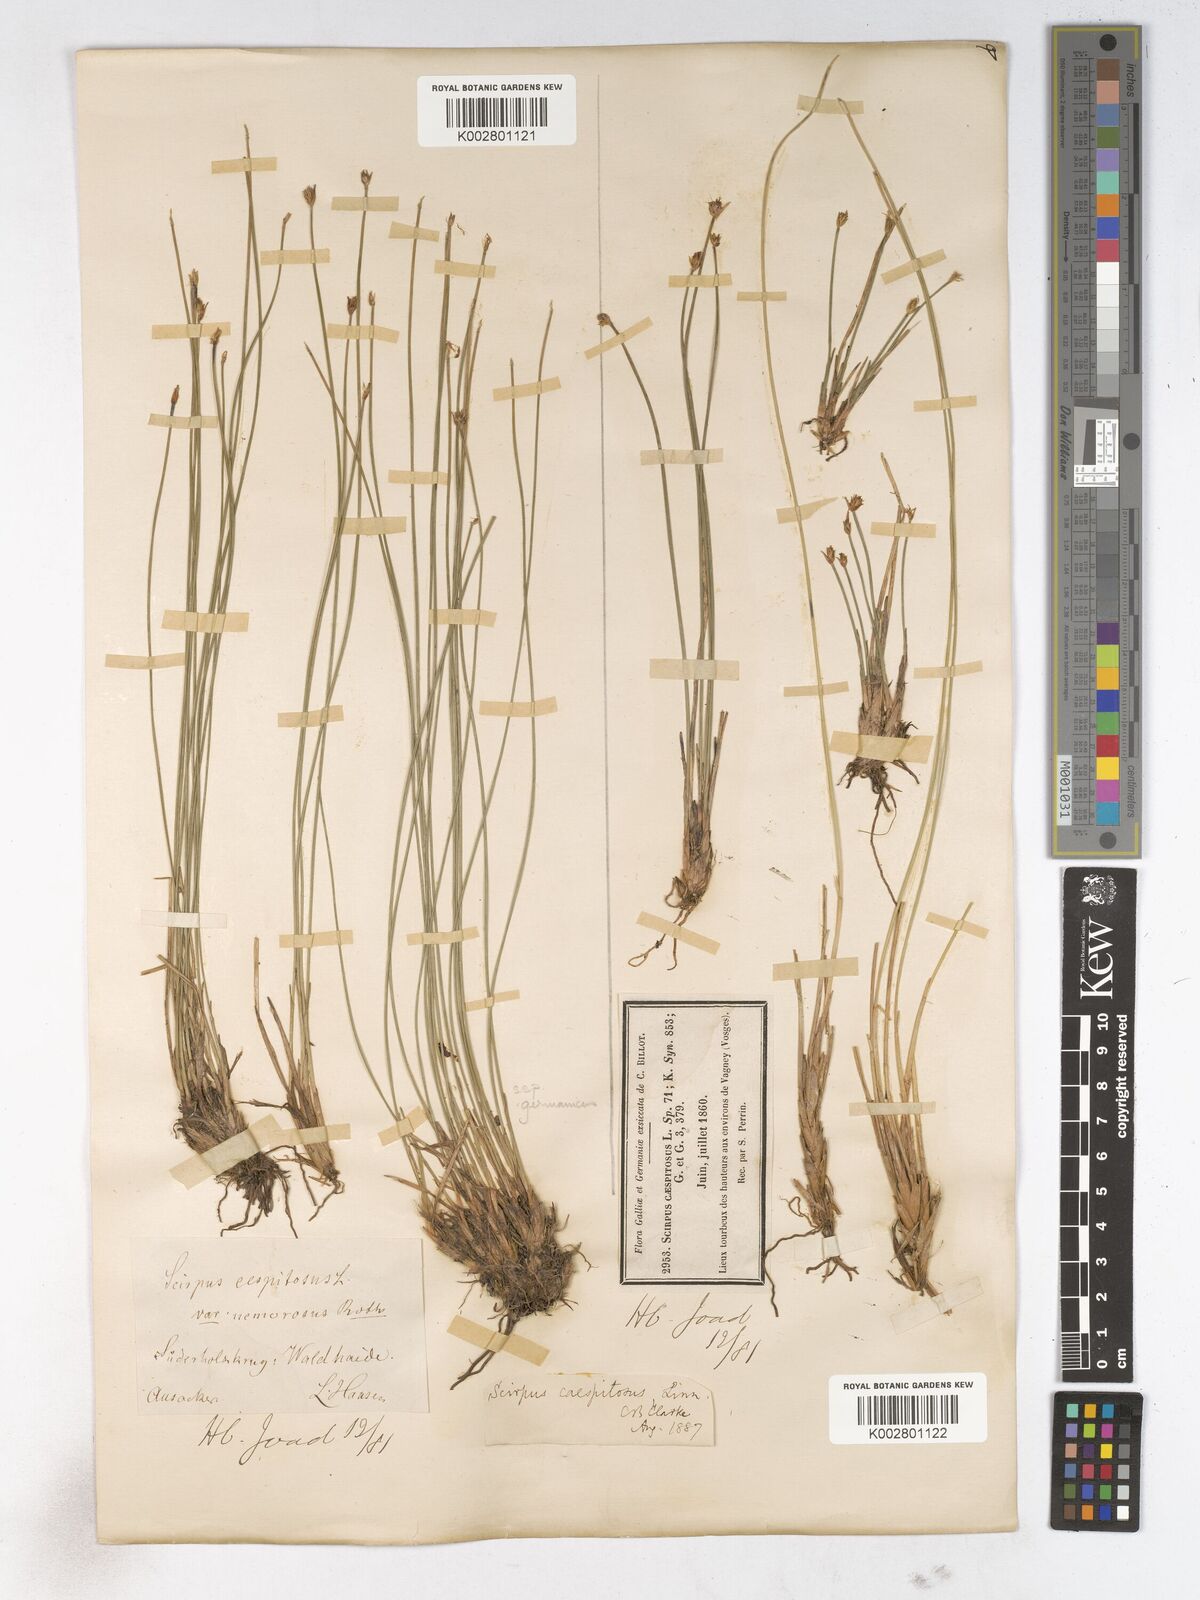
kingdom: Plantae
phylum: Tracheophyta
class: Liliopsida
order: Poales
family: Cyperaceae
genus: Trichophorum
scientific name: Trichophorum cespitosum
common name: Cespitose bulrush
